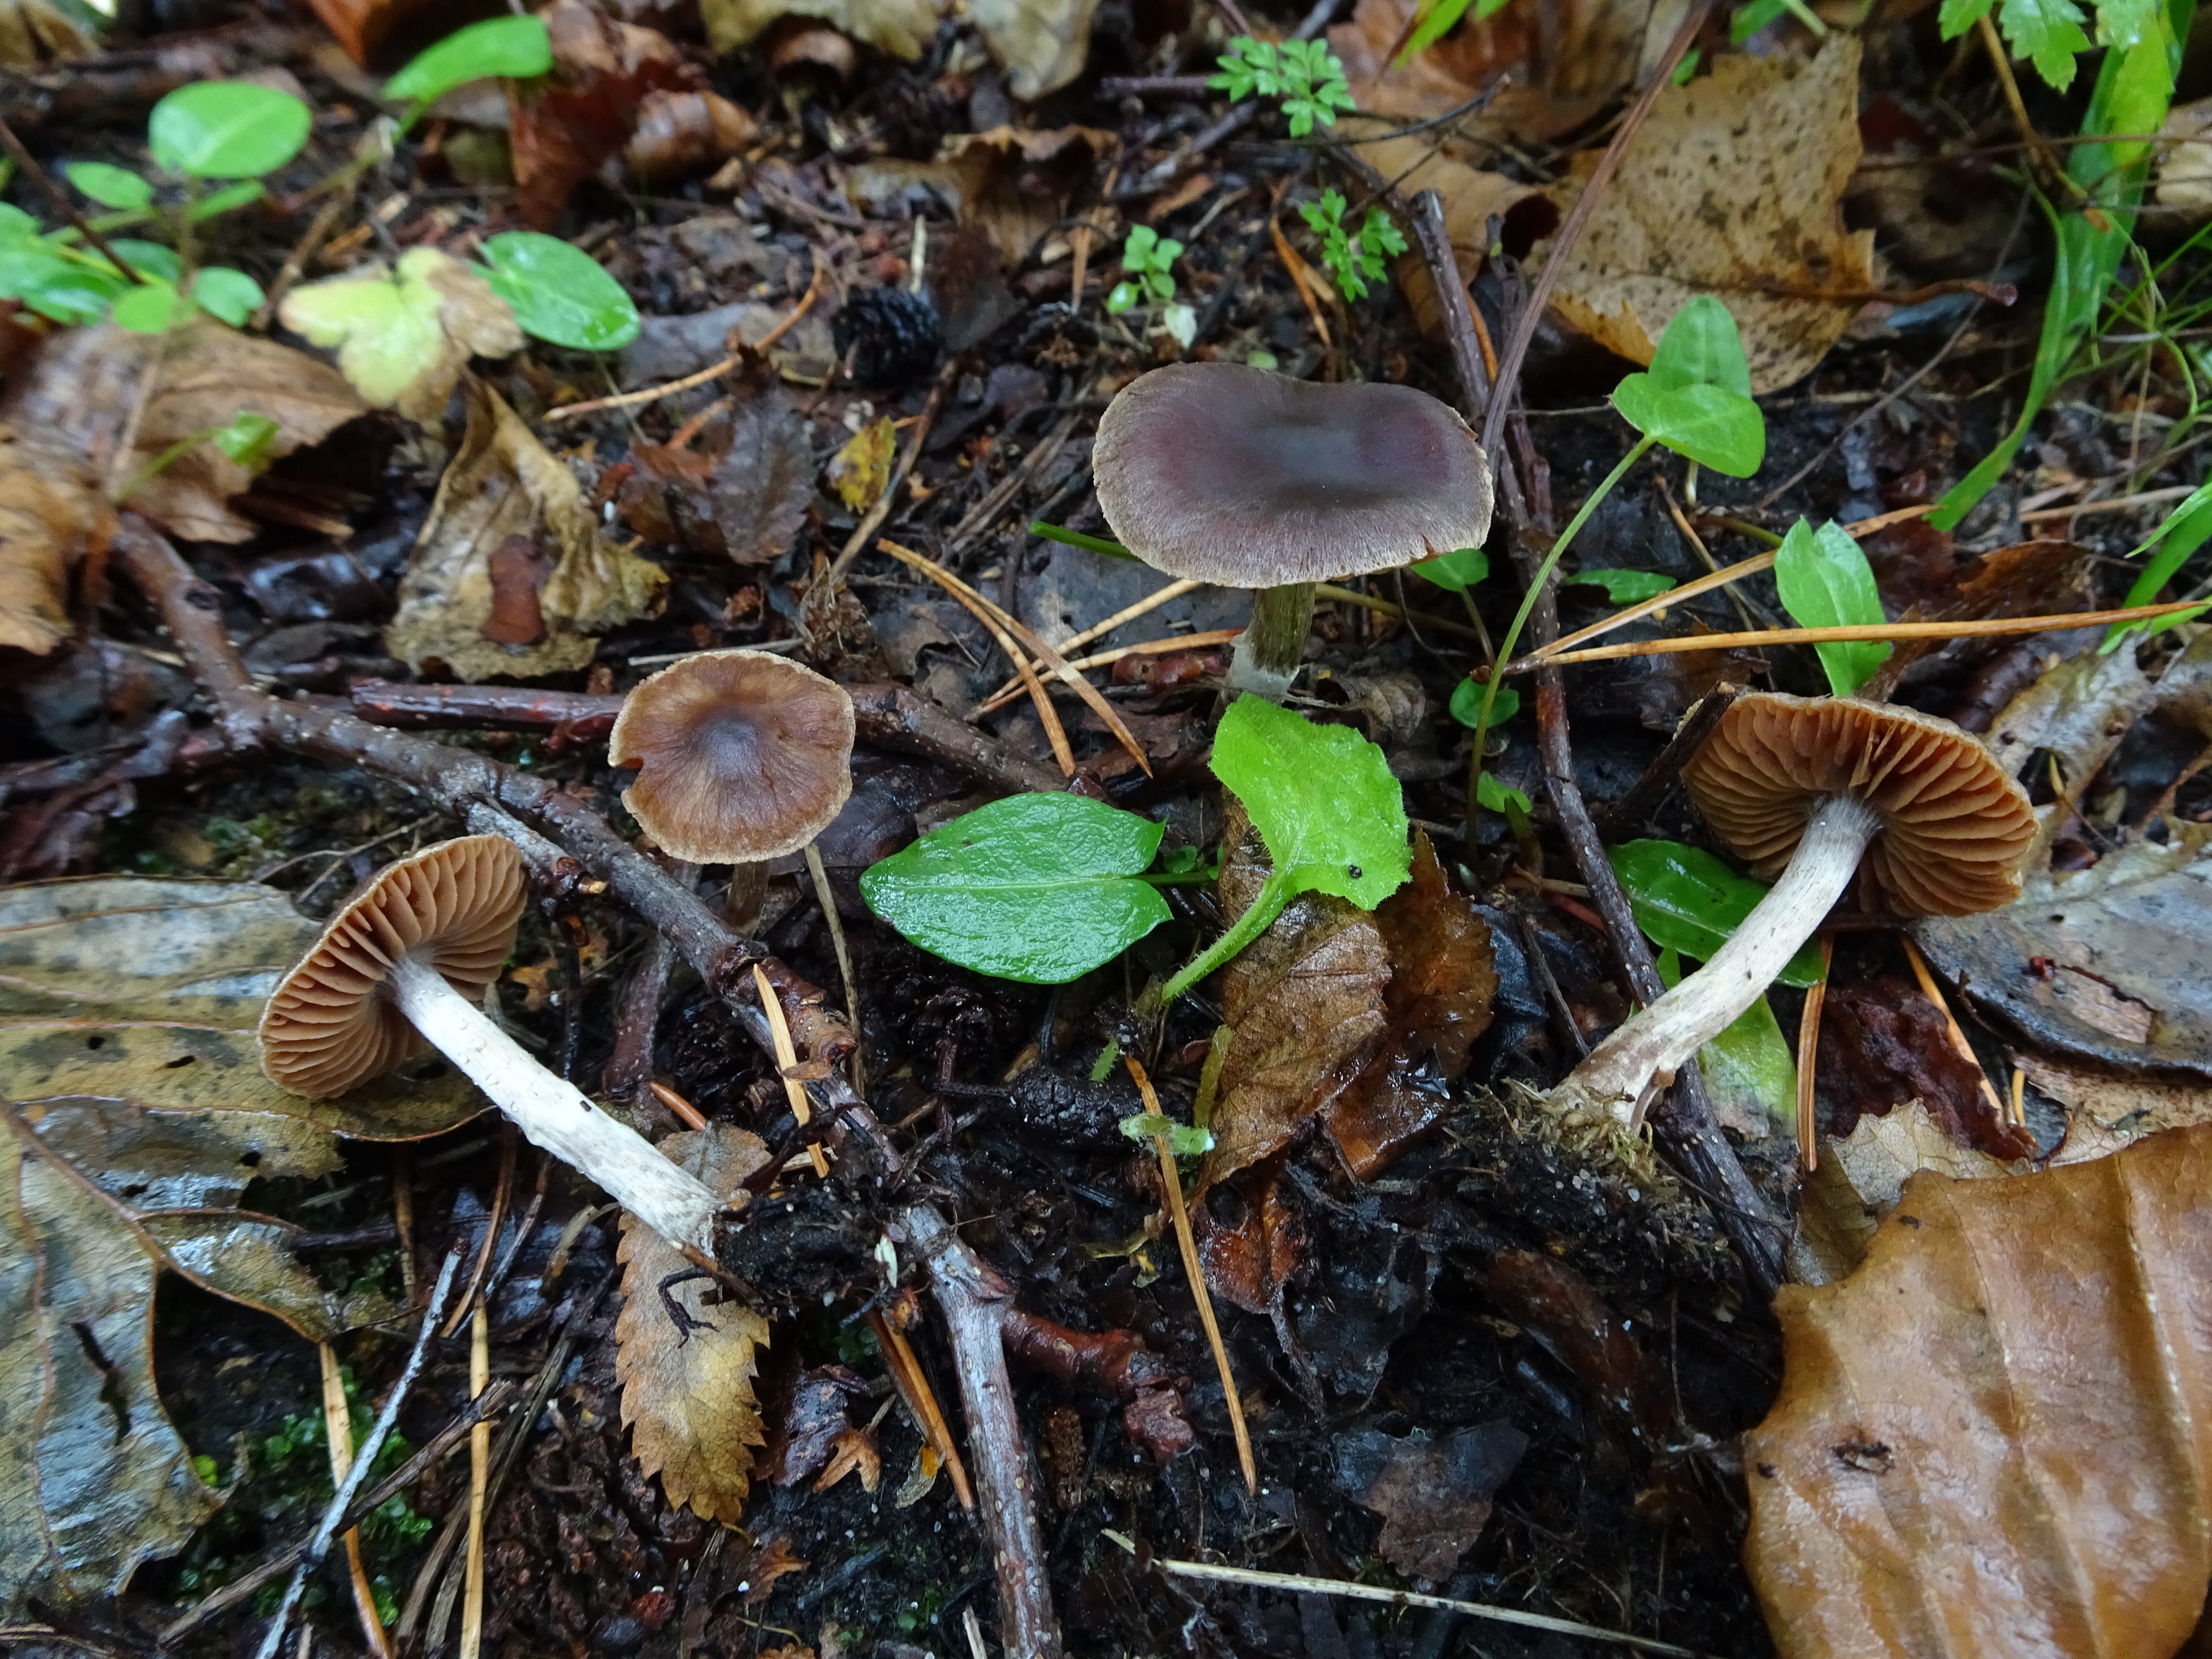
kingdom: Fungi
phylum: Basidiomycota
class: Agaricomycetes
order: Agaricales
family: Cortinariaceae
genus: Cortinarius
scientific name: Cortinarius
